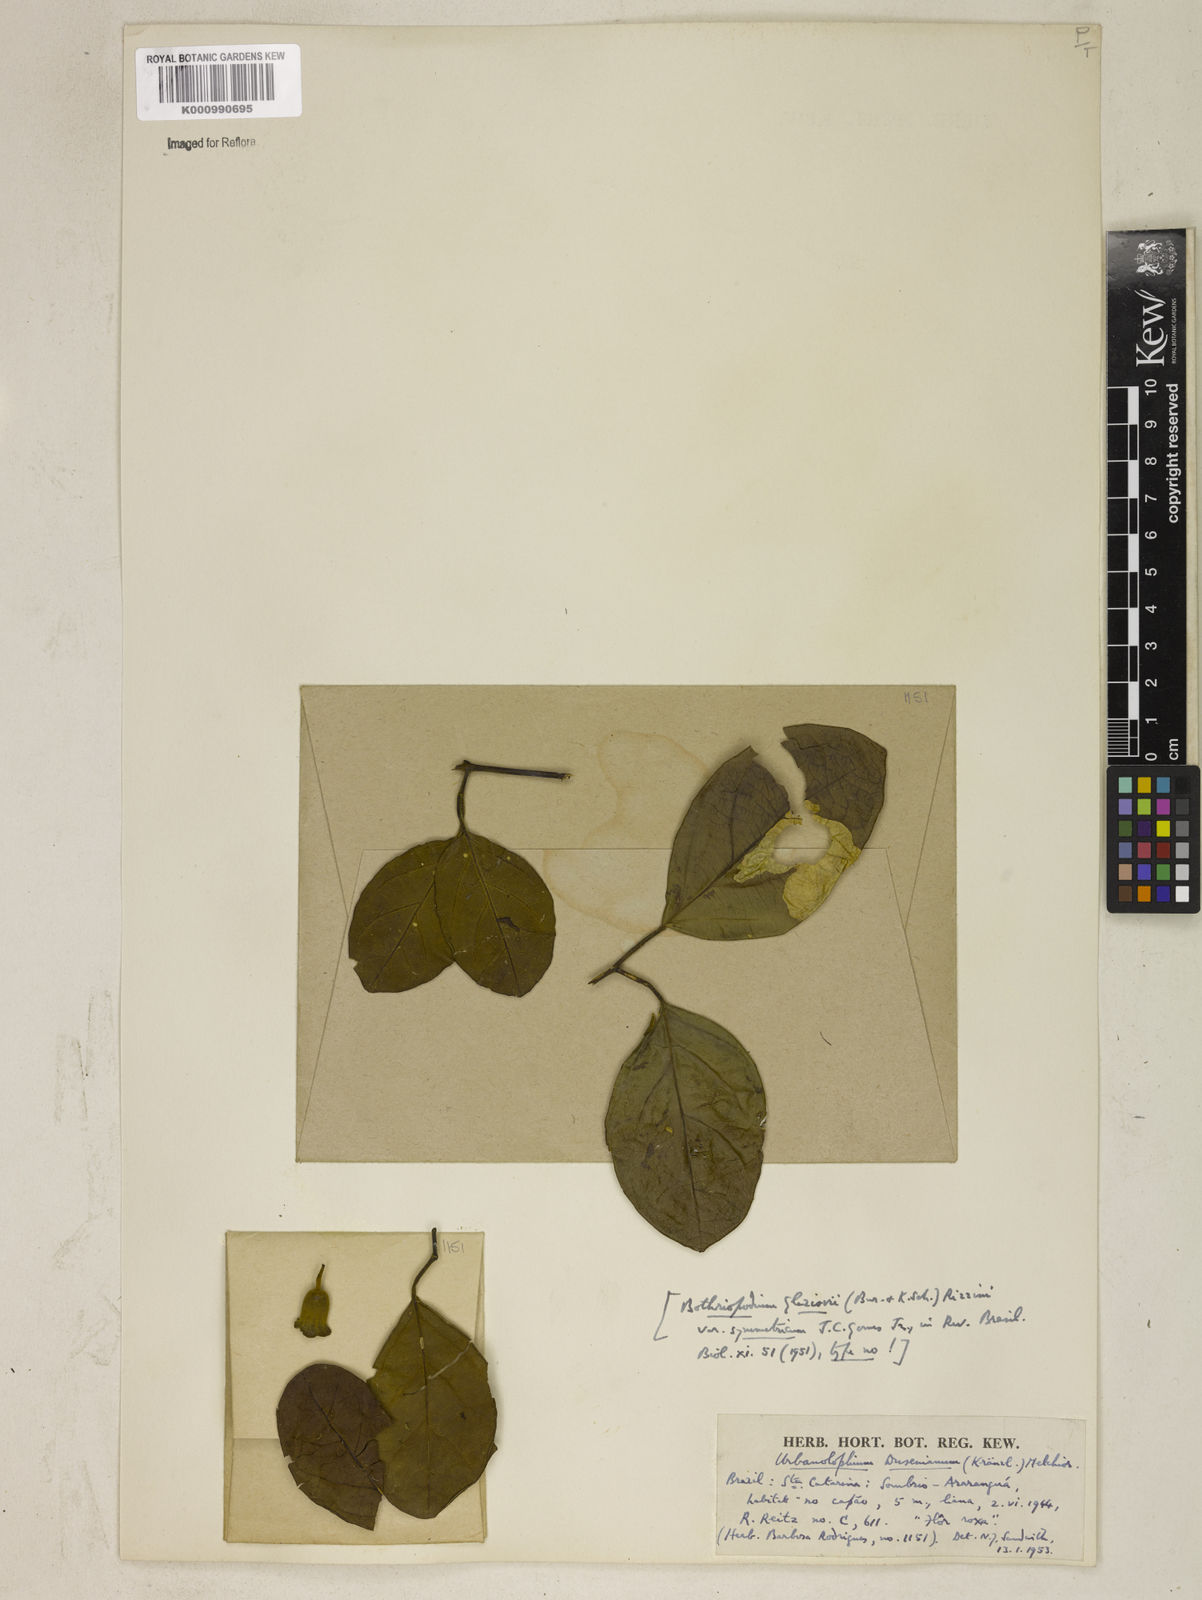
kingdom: Plantae
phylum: Tracheophyta
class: Magnoliopsida
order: Lamiales
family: Bignoniaceae
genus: Amphilophium
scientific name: Amphilophium dusenianum
